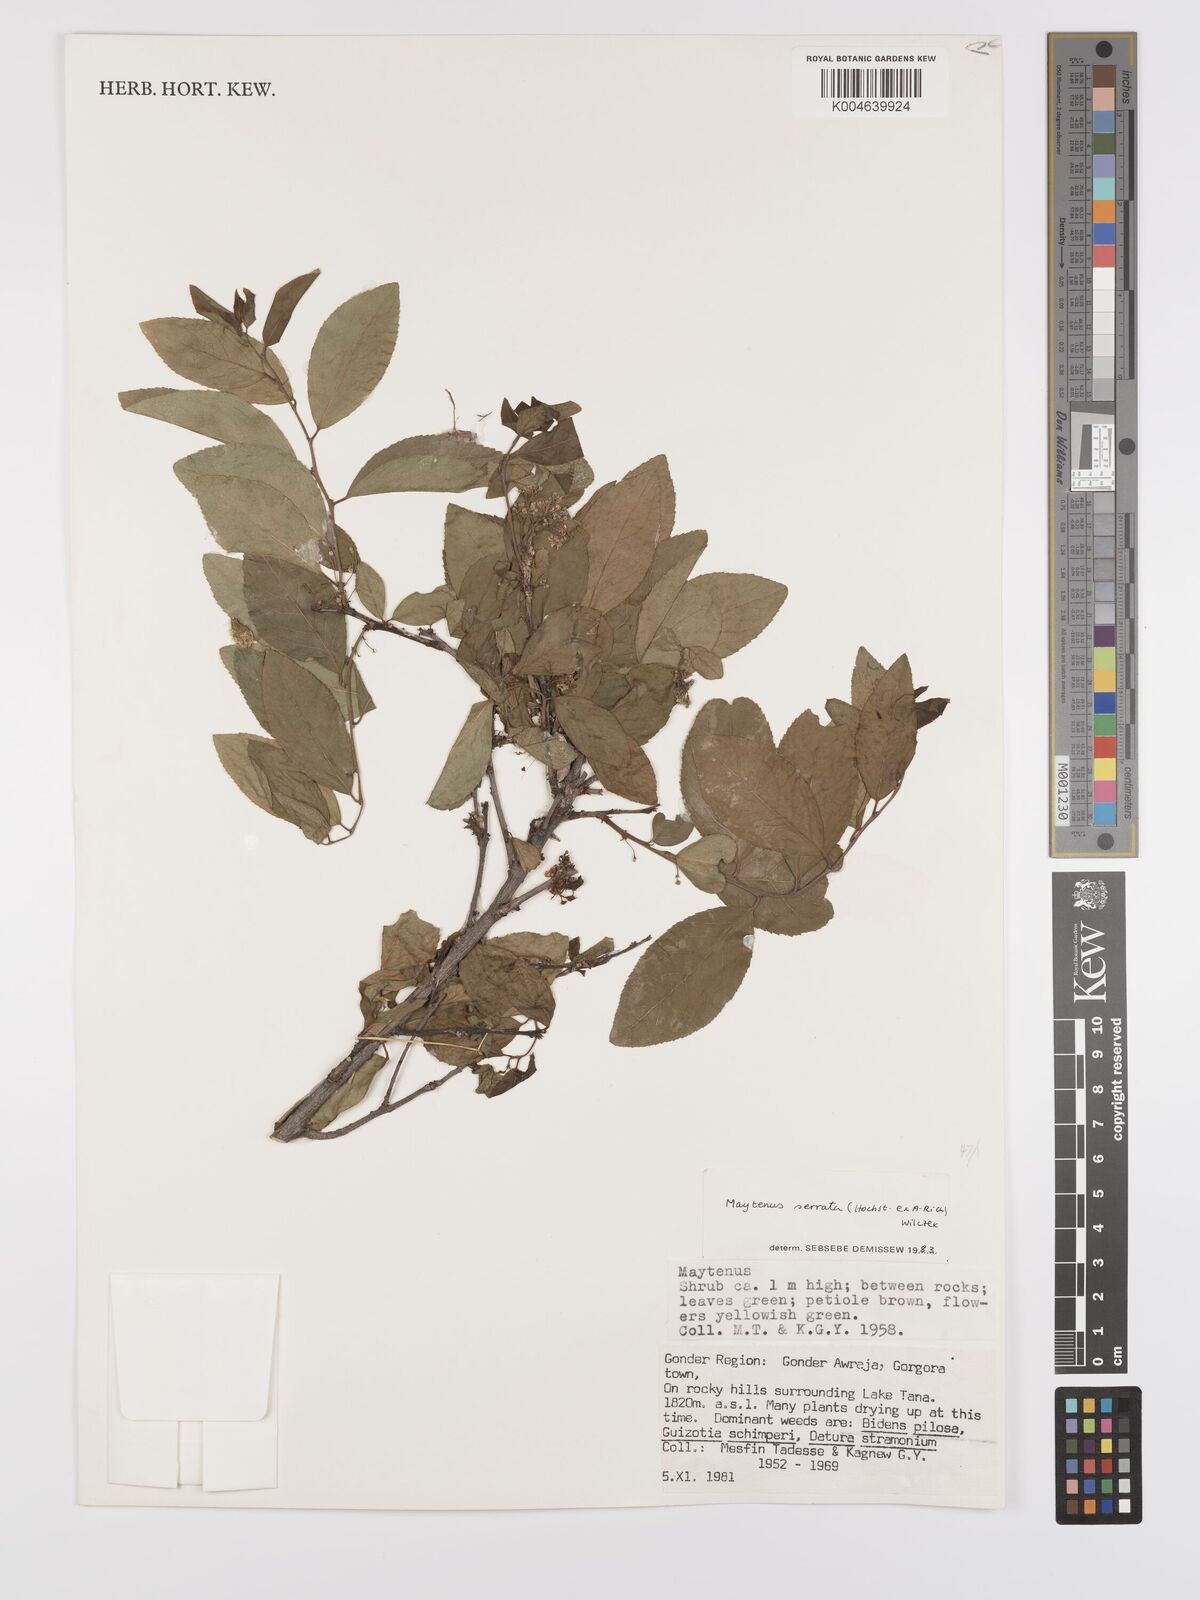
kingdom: Plantae
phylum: Tracheophyta
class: Magnoliopsida
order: Celastrales
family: Celastraceae
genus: Gymnosporia
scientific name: Gymnosporia serrata
